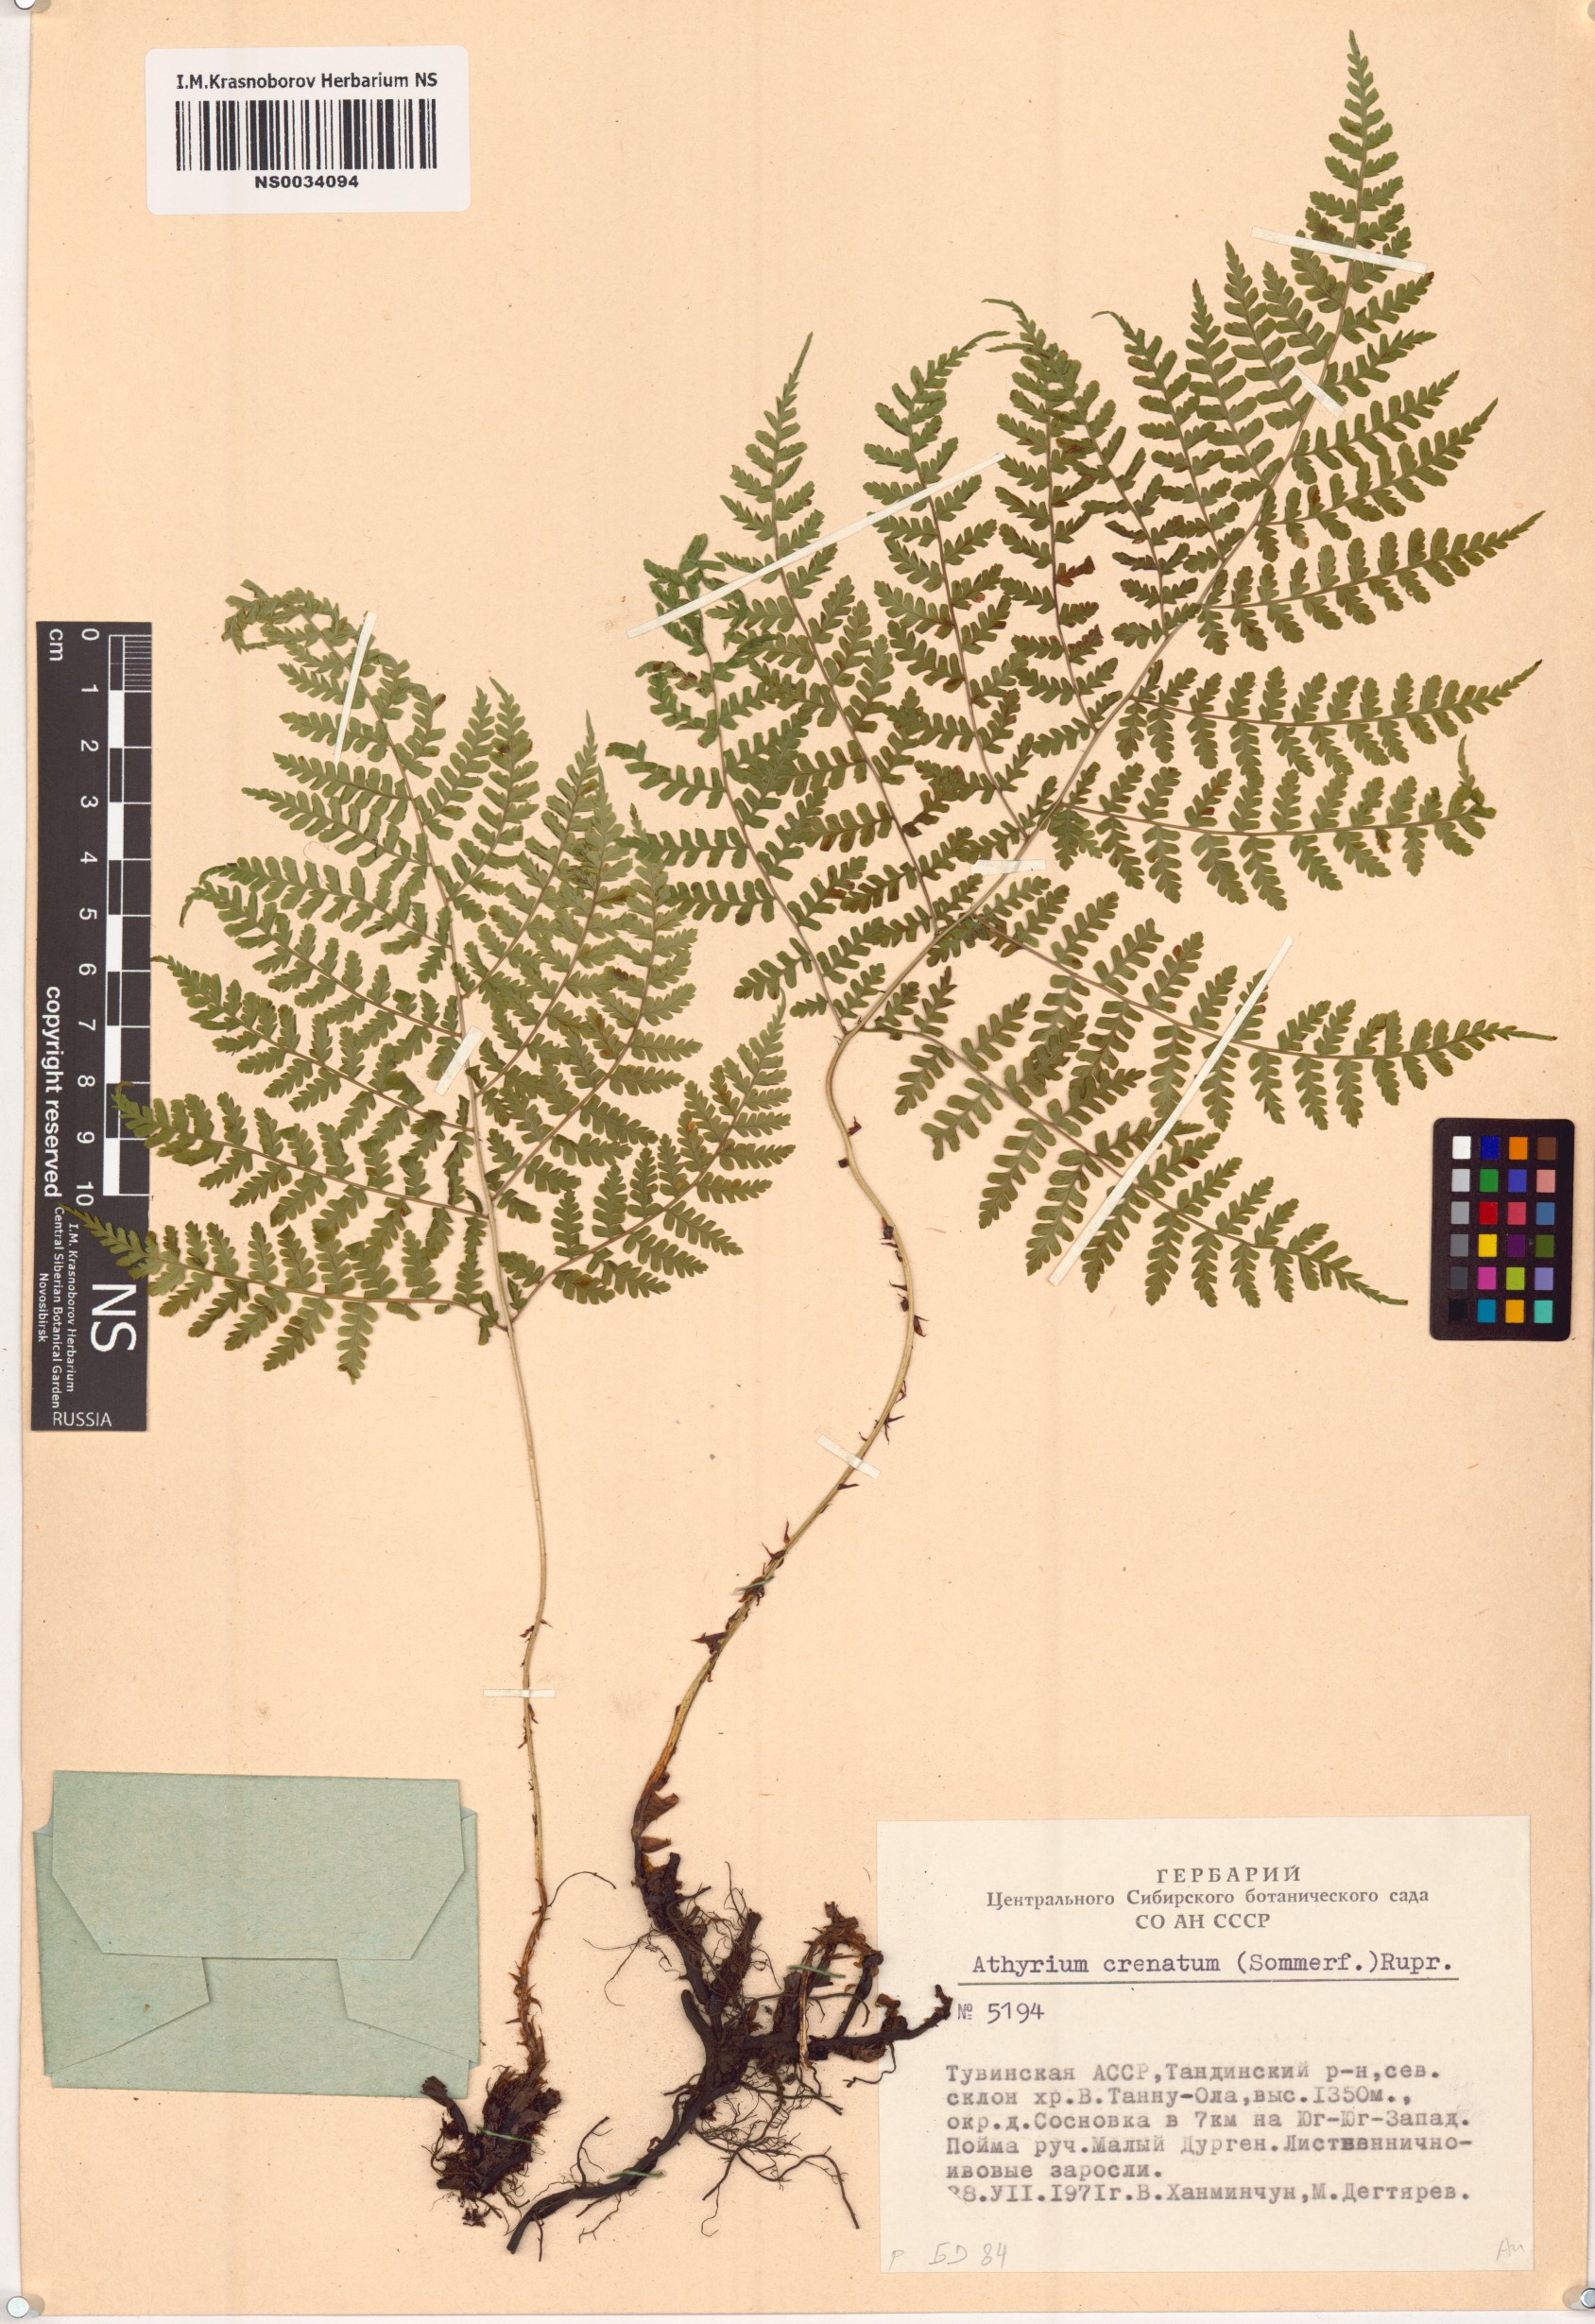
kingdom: Plantae
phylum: Tracheophyta
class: Polypodiopsida
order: Polypodiales
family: Athyriaceae
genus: Diplazium
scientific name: Diplazium sibiricum
